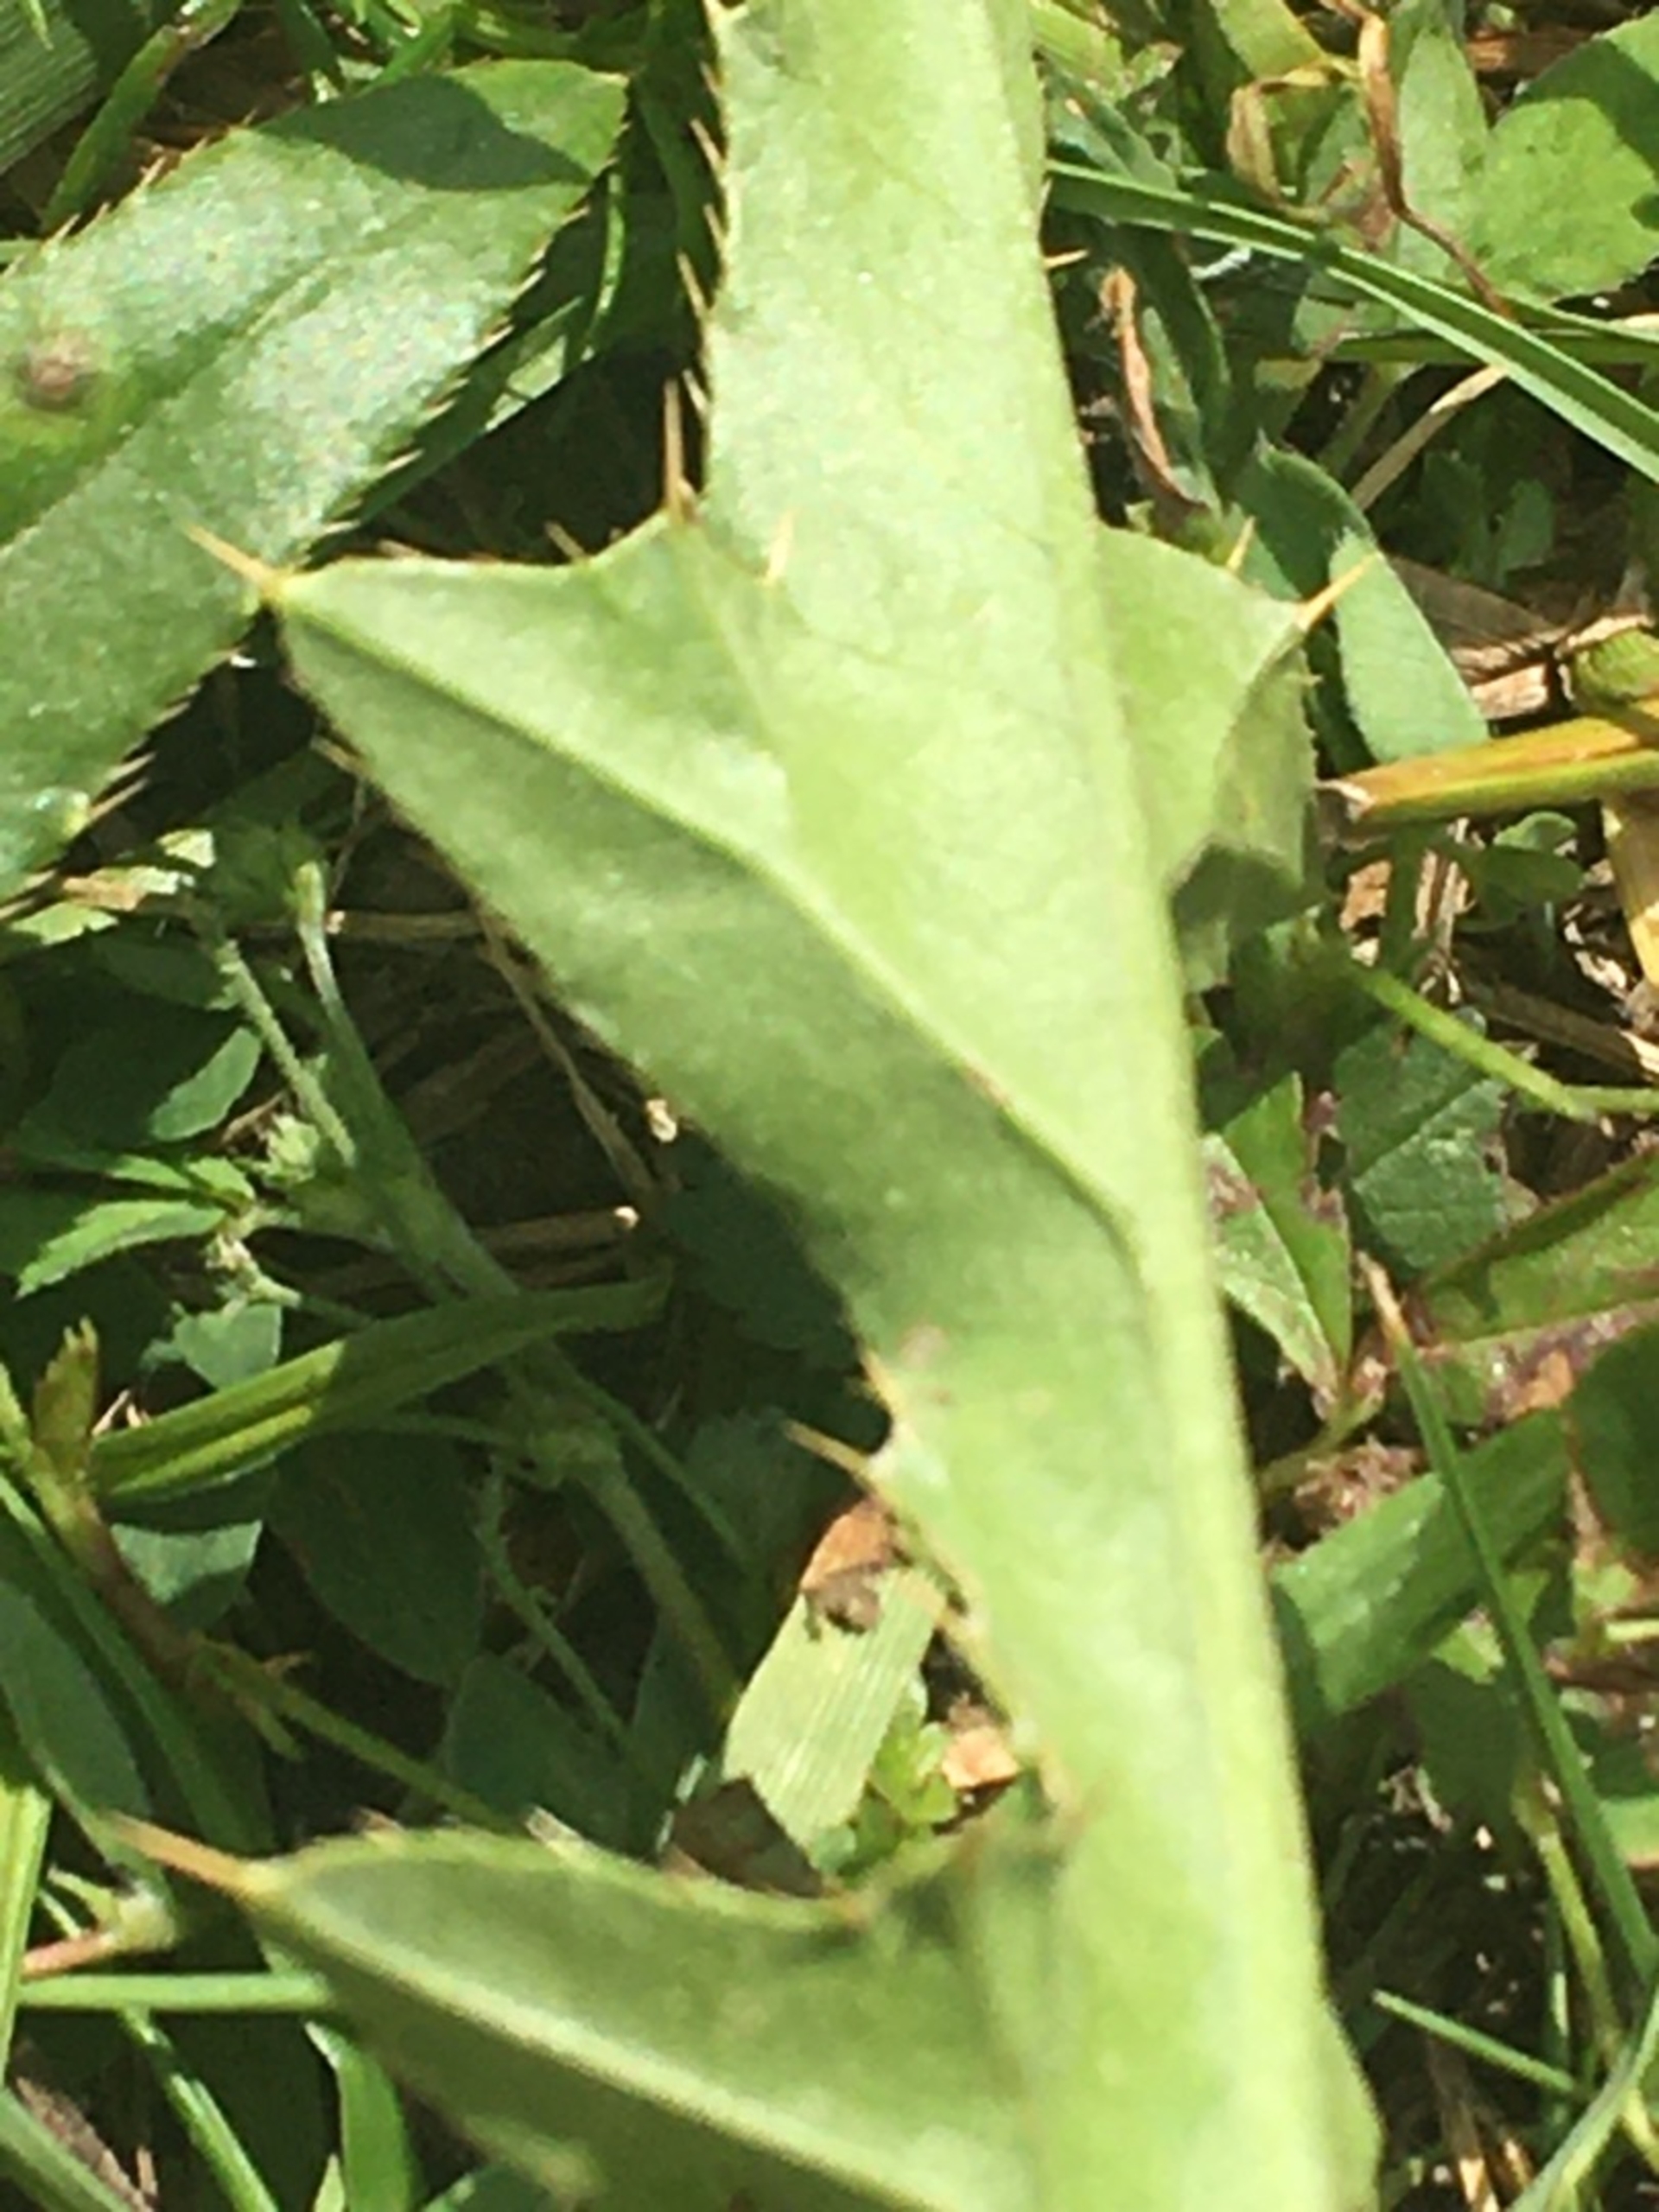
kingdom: Plantae
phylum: Tracheophyta
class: Magnoliopsida
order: Asterales
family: Asteraceae
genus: Cirsium
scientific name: Cirsium arvense
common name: Ager-tidsel
